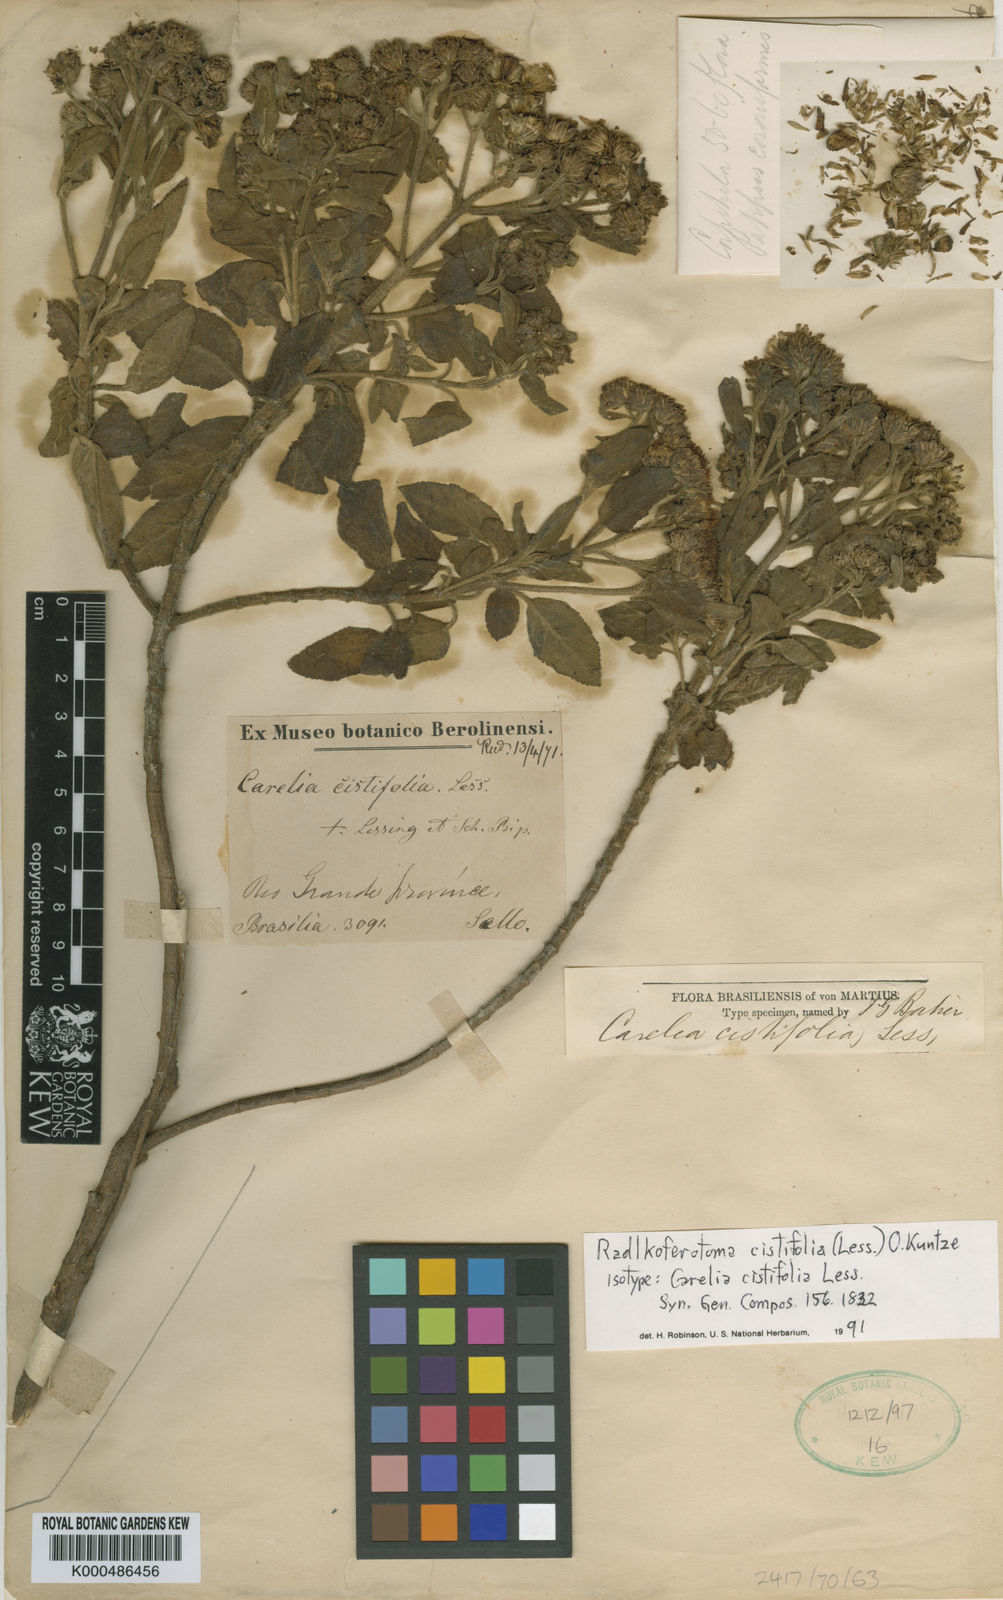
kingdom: Plantae
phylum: Tracheophyta
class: Magnoliopsida
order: Asterales
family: Asteraceae
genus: Radlkoferotoma
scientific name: Radlkoferotoma cistifolium
